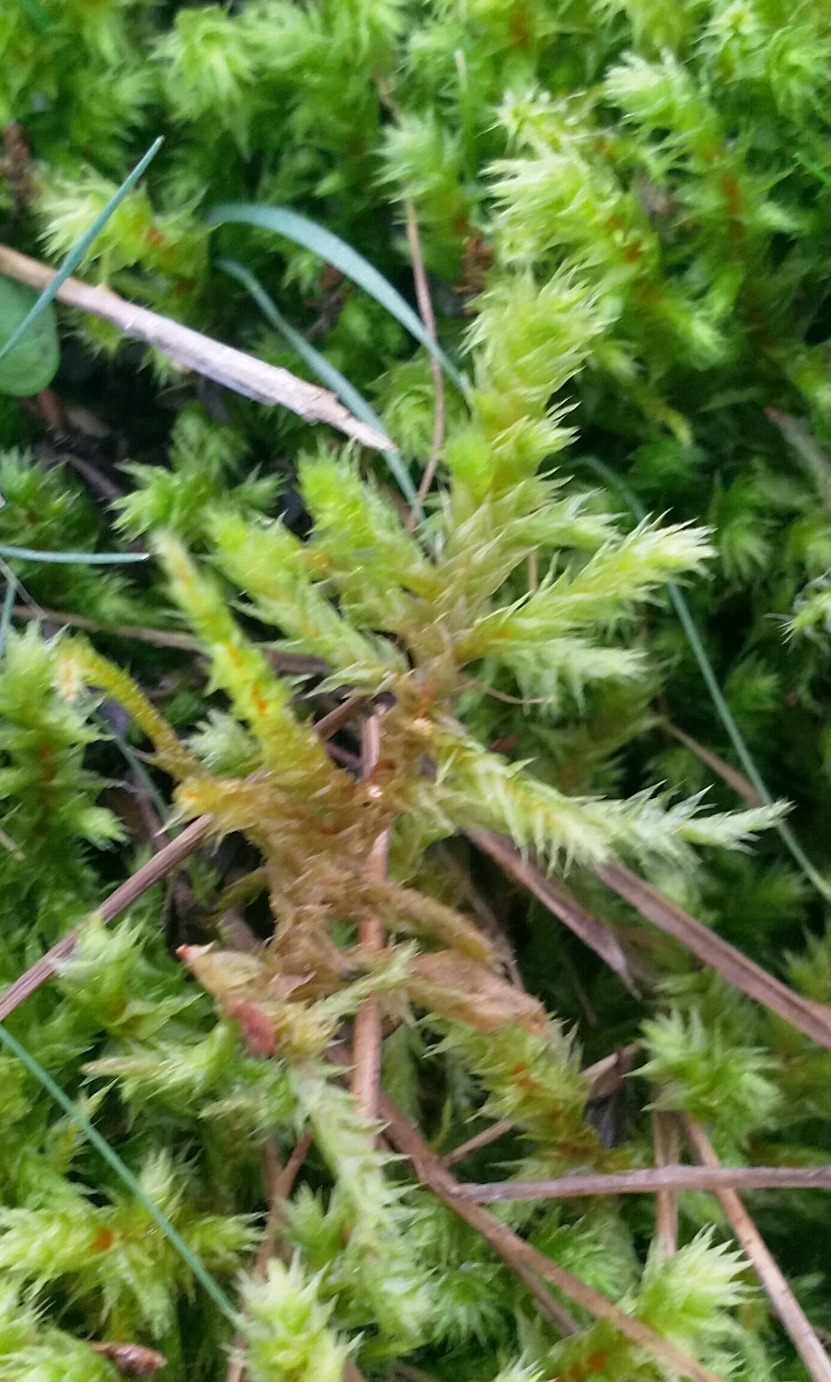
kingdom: Plantae
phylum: Bryophyta
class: Bryopsida
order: Hypnales
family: Hylocomiaceae
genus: Hylocomiadelphus
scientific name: Hylocomiadelphus triquetrus
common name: Stor kransemos
